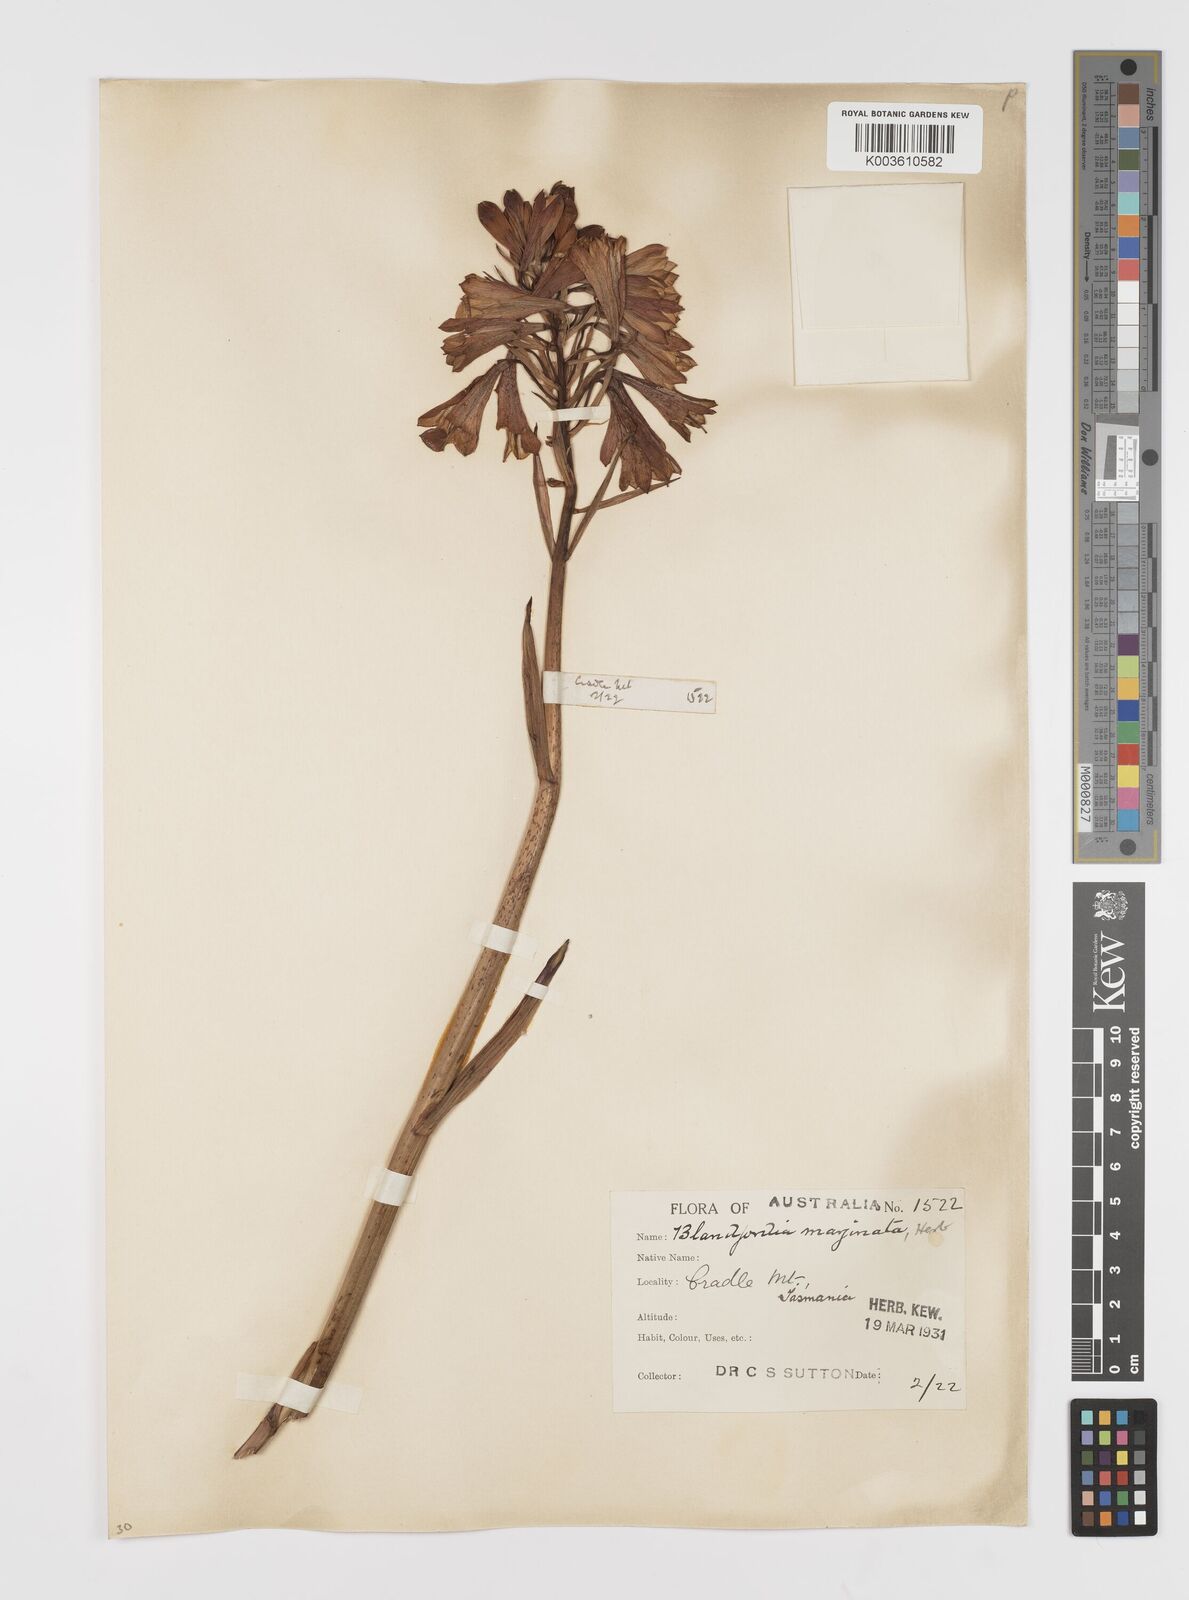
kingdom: Plantae
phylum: Tracheophyta
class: Liliopsida
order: Asparagales
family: Blandfordiaceae
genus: Blandfordia
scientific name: Blandfordia punicea
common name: Tasmanian christmas-bell
